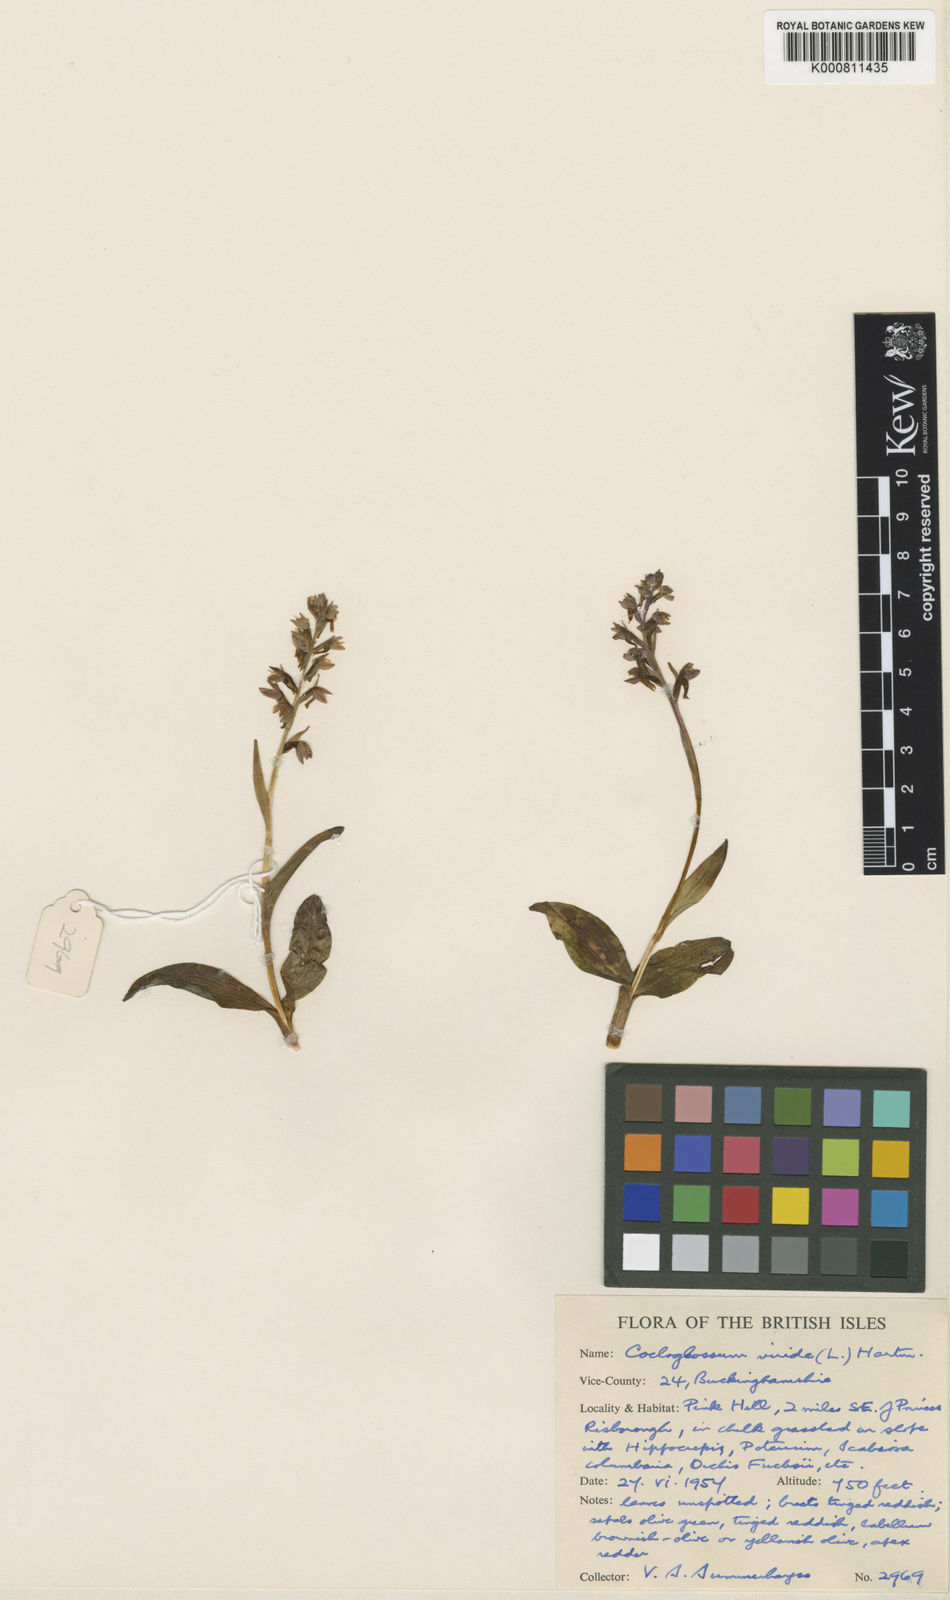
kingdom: Plantae
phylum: Tracheophyta
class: Liliopsida
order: Asparagales
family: Orchidaceae
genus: Dactylorhiza
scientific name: Dactylorhiza viridis
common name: Longbract frog orchid
